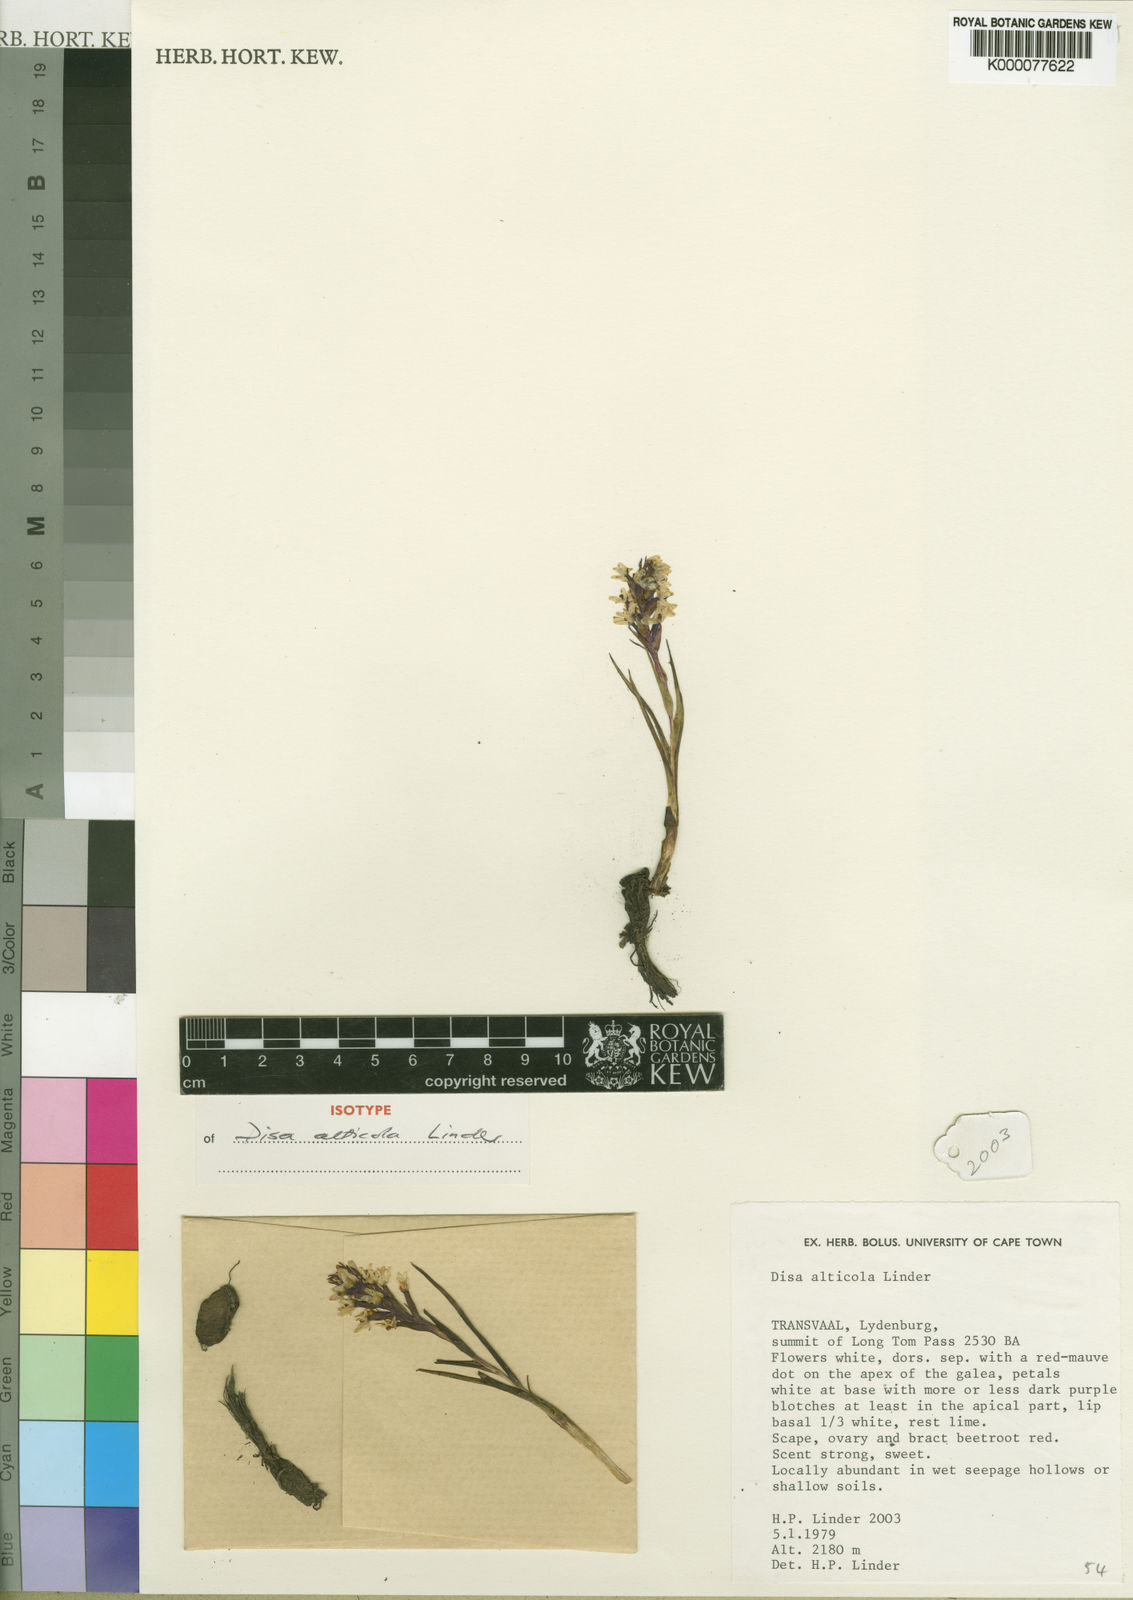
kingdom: Plantae
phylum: Tracheophyta
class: Liliopsida
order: Asparagales
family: Orchidaceae
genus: Disa
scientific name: Disa
